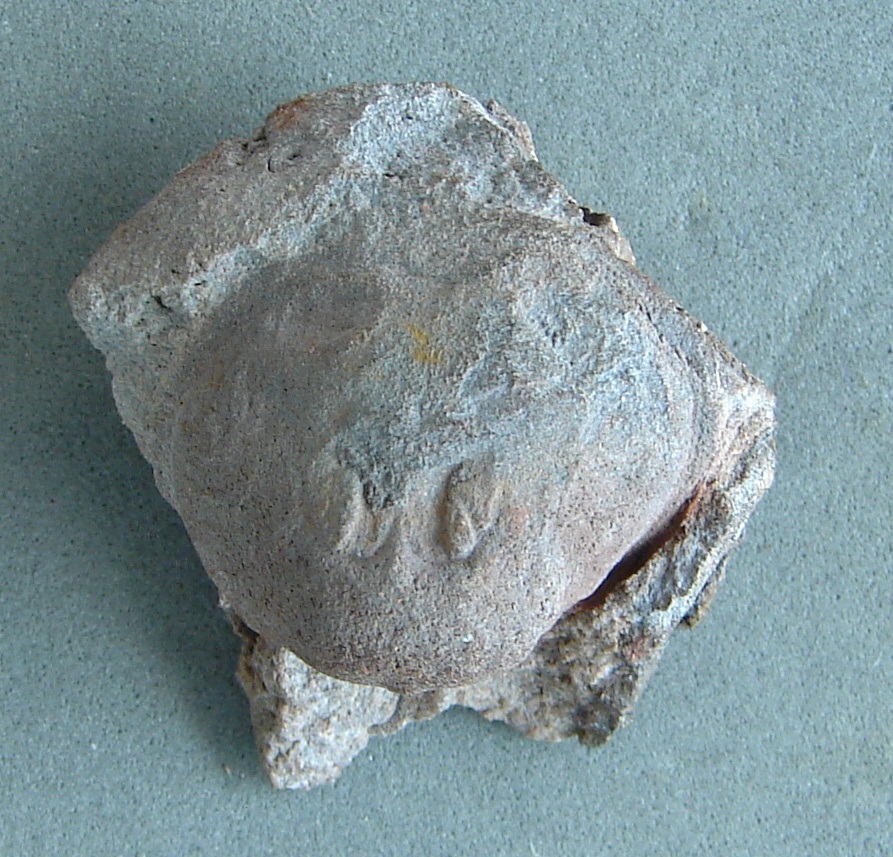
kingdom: Animalia
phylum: Brachiopoda
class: Craniata
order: Craniida
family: Craniidae
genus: Petrocrania
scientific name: Petrocrania
